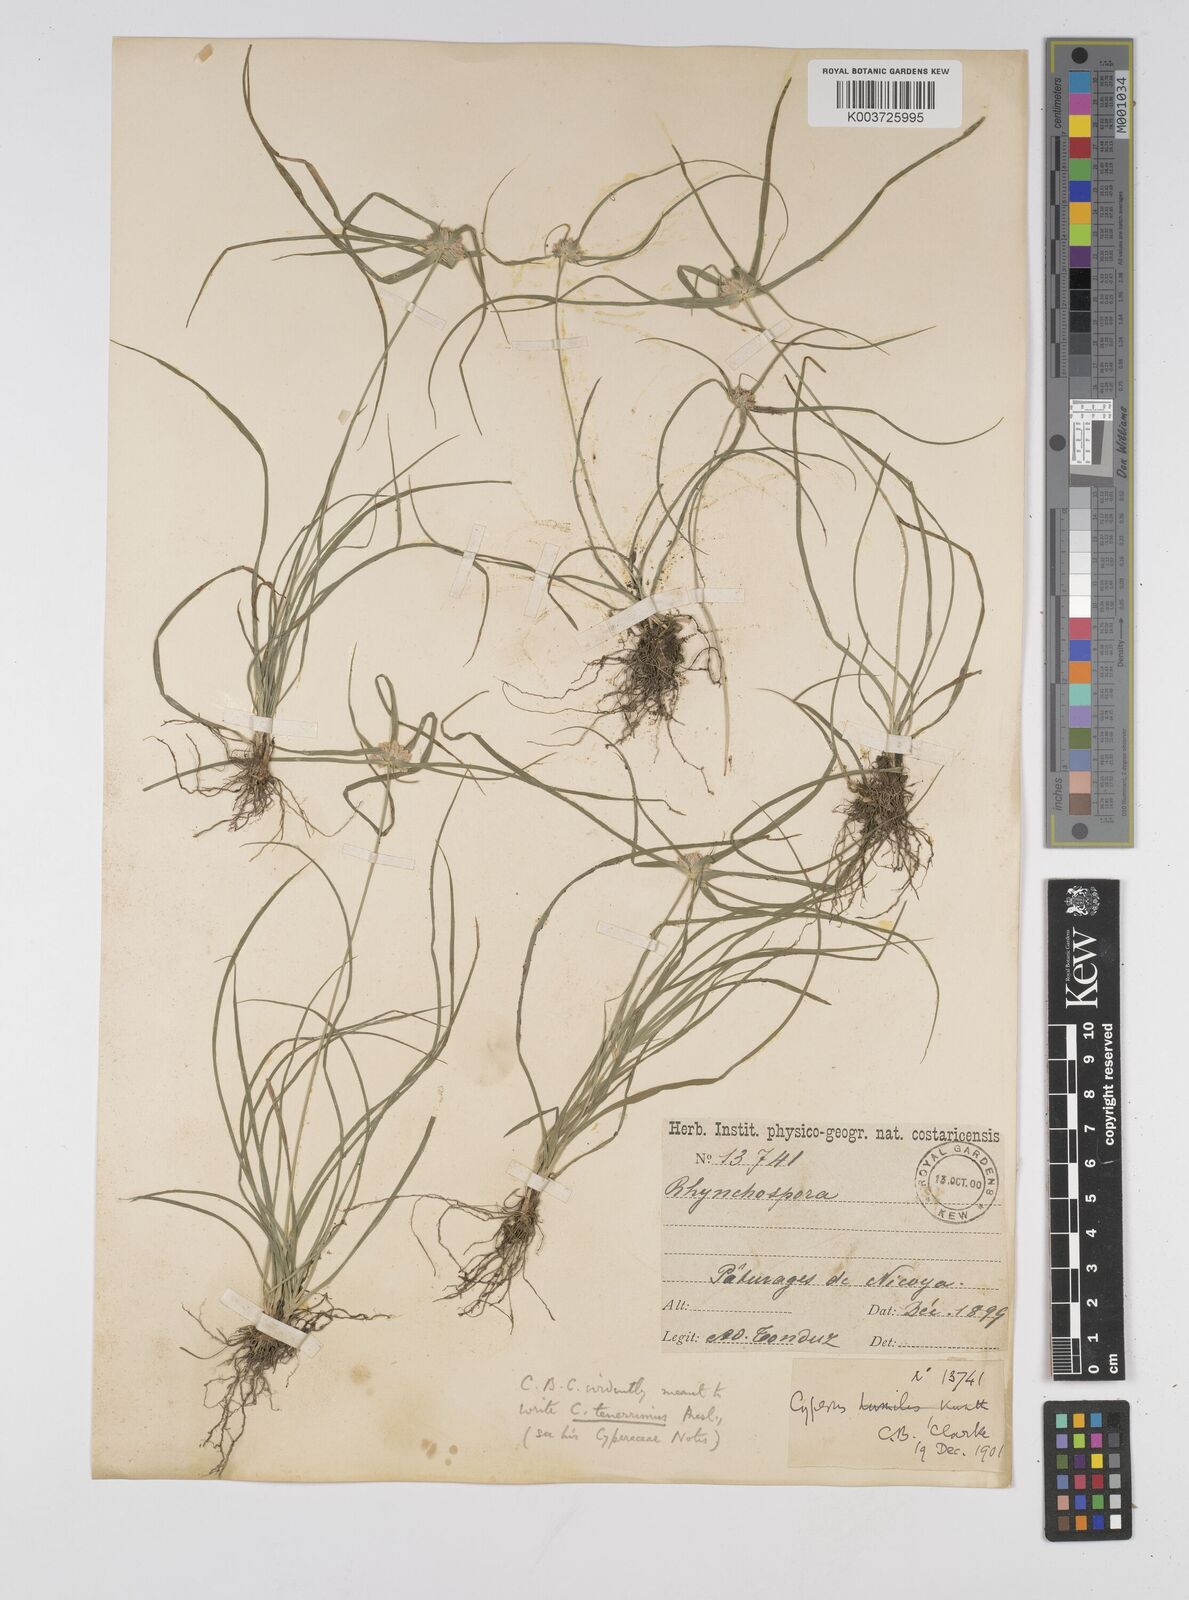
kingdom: Plantae
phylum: Tracheophyta
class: Liliopsida
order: Poales
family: Cyperaceae
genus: Cyperus
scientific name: Cyperus tenerrimus
